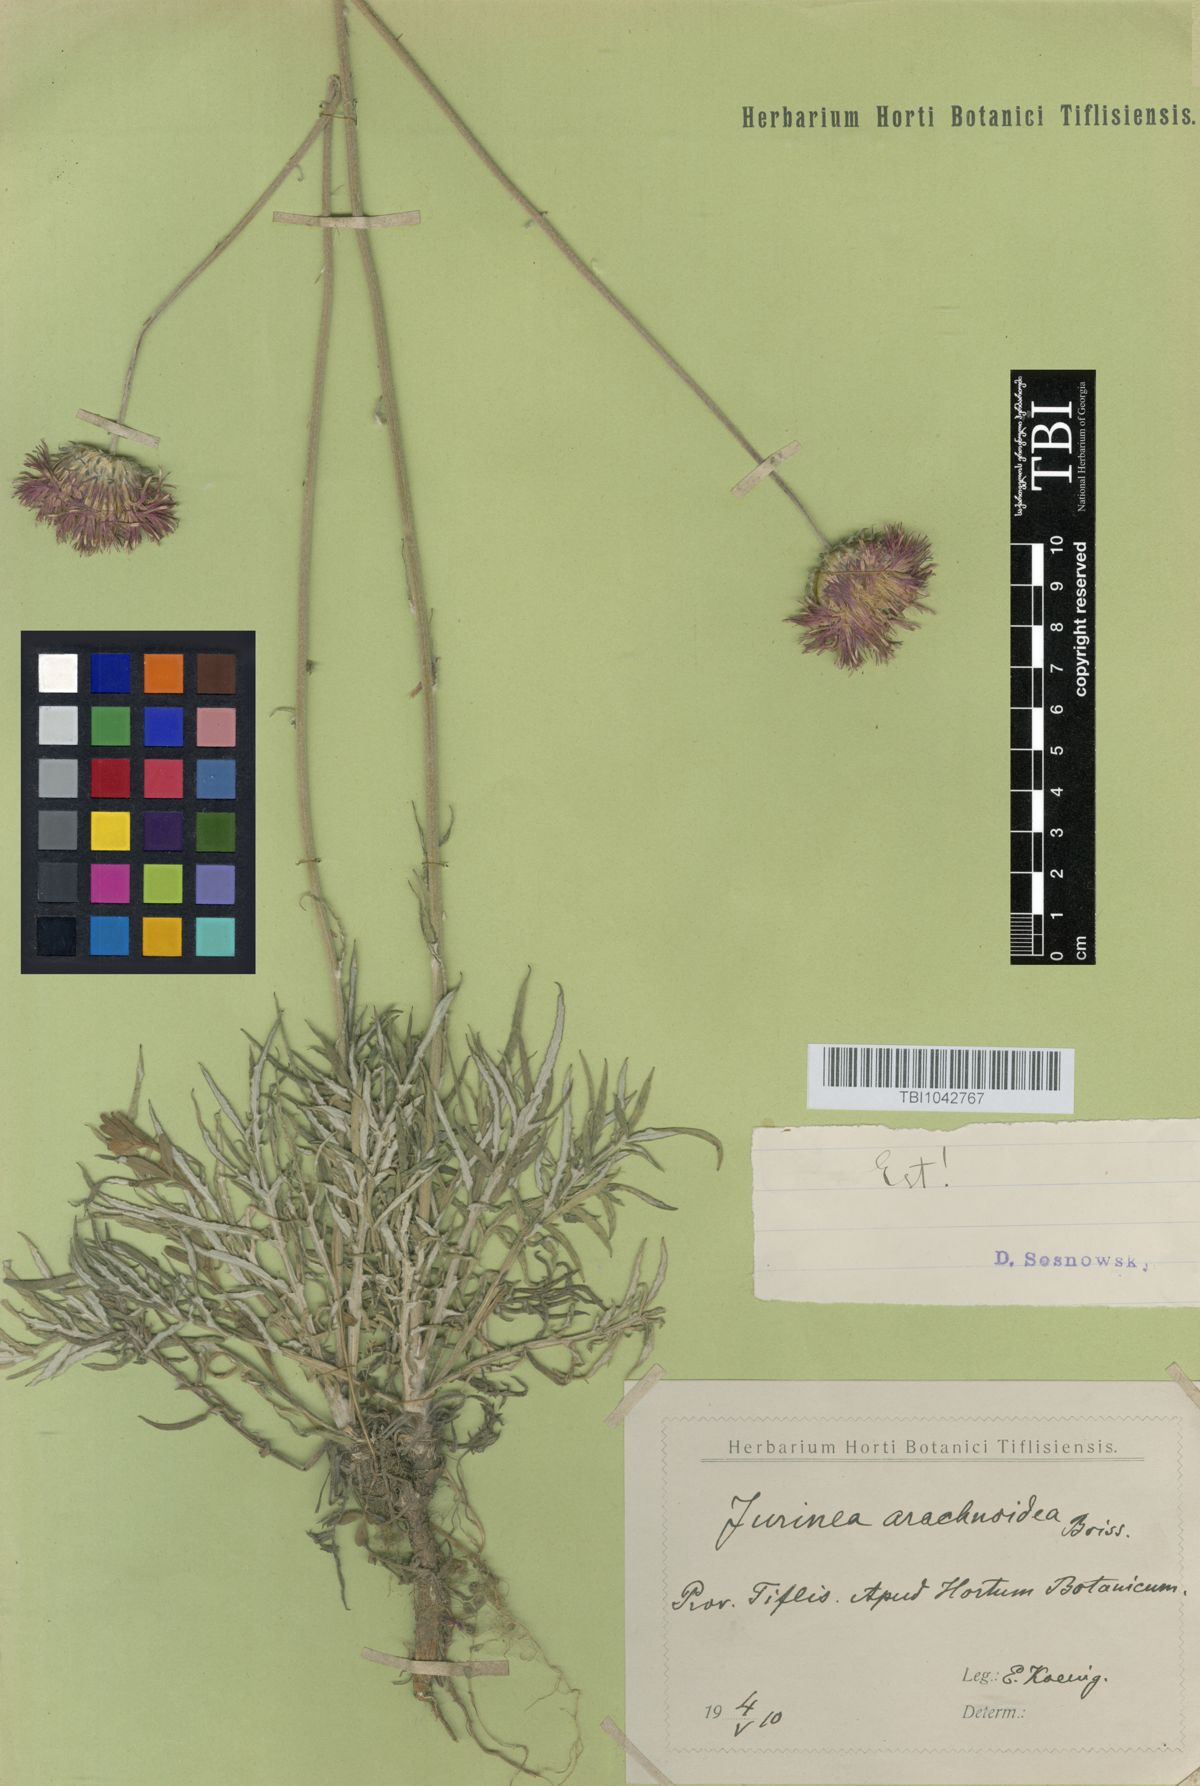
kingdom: Plantae
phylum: Tracheophyta
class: Magnoliopsida
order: Asterales
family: Asteraceae
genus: Jurinea
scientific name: Jurinea blanda
